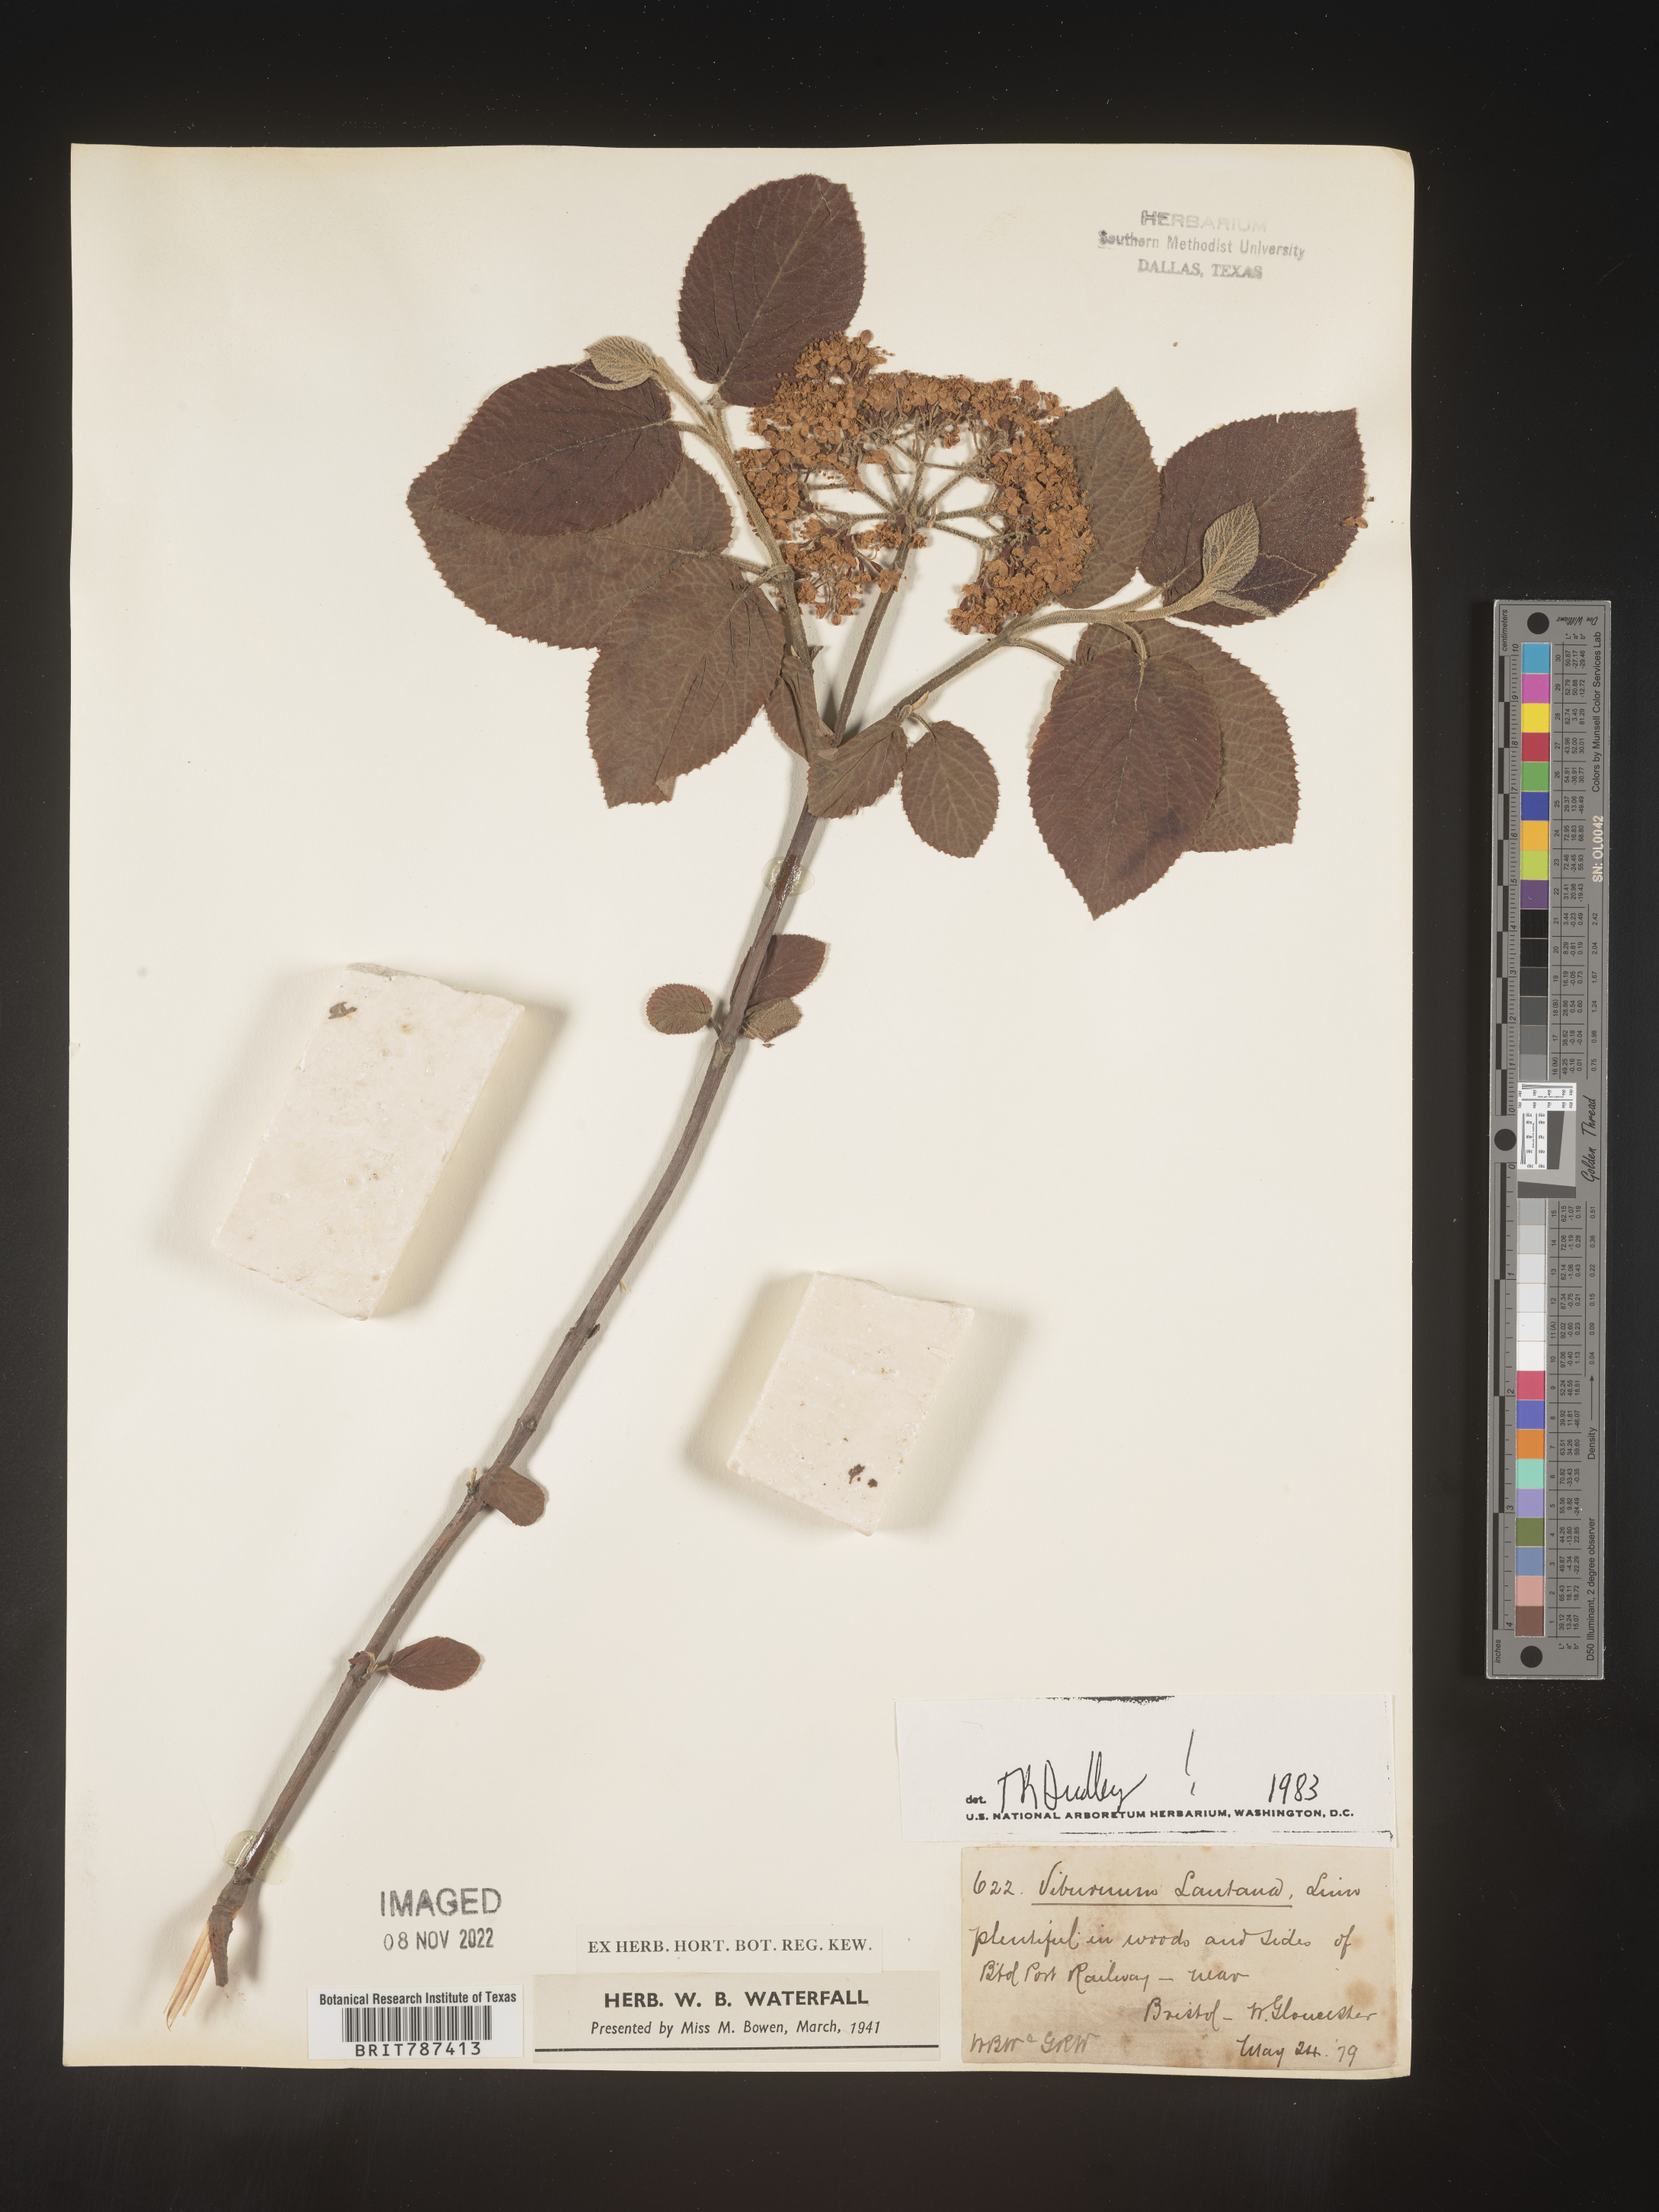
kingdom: Plantae
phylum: Tracheophyta
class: Magnoliopsida
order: Dipsacales
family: Viburnaceae
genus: Viburnum
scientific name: Viburnum
